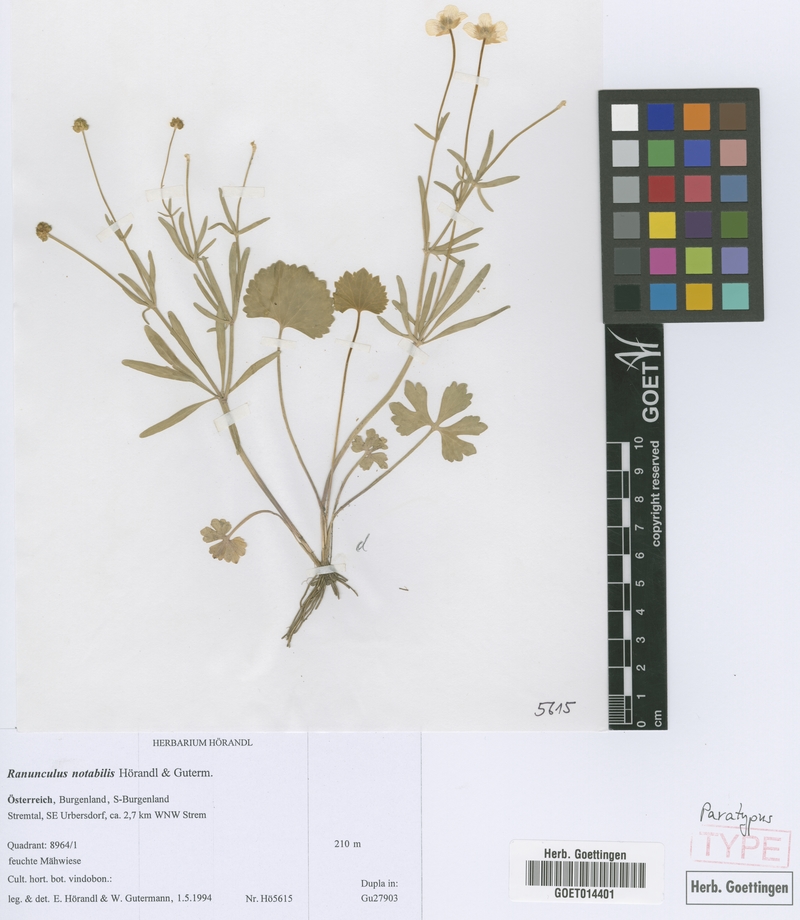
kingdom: Plantae
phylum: Tracheophyta
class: Magnoliopsida
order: Ranunculales
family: Ranunculaceae
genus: Ranunculus
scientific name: Ranunculus notabilis
